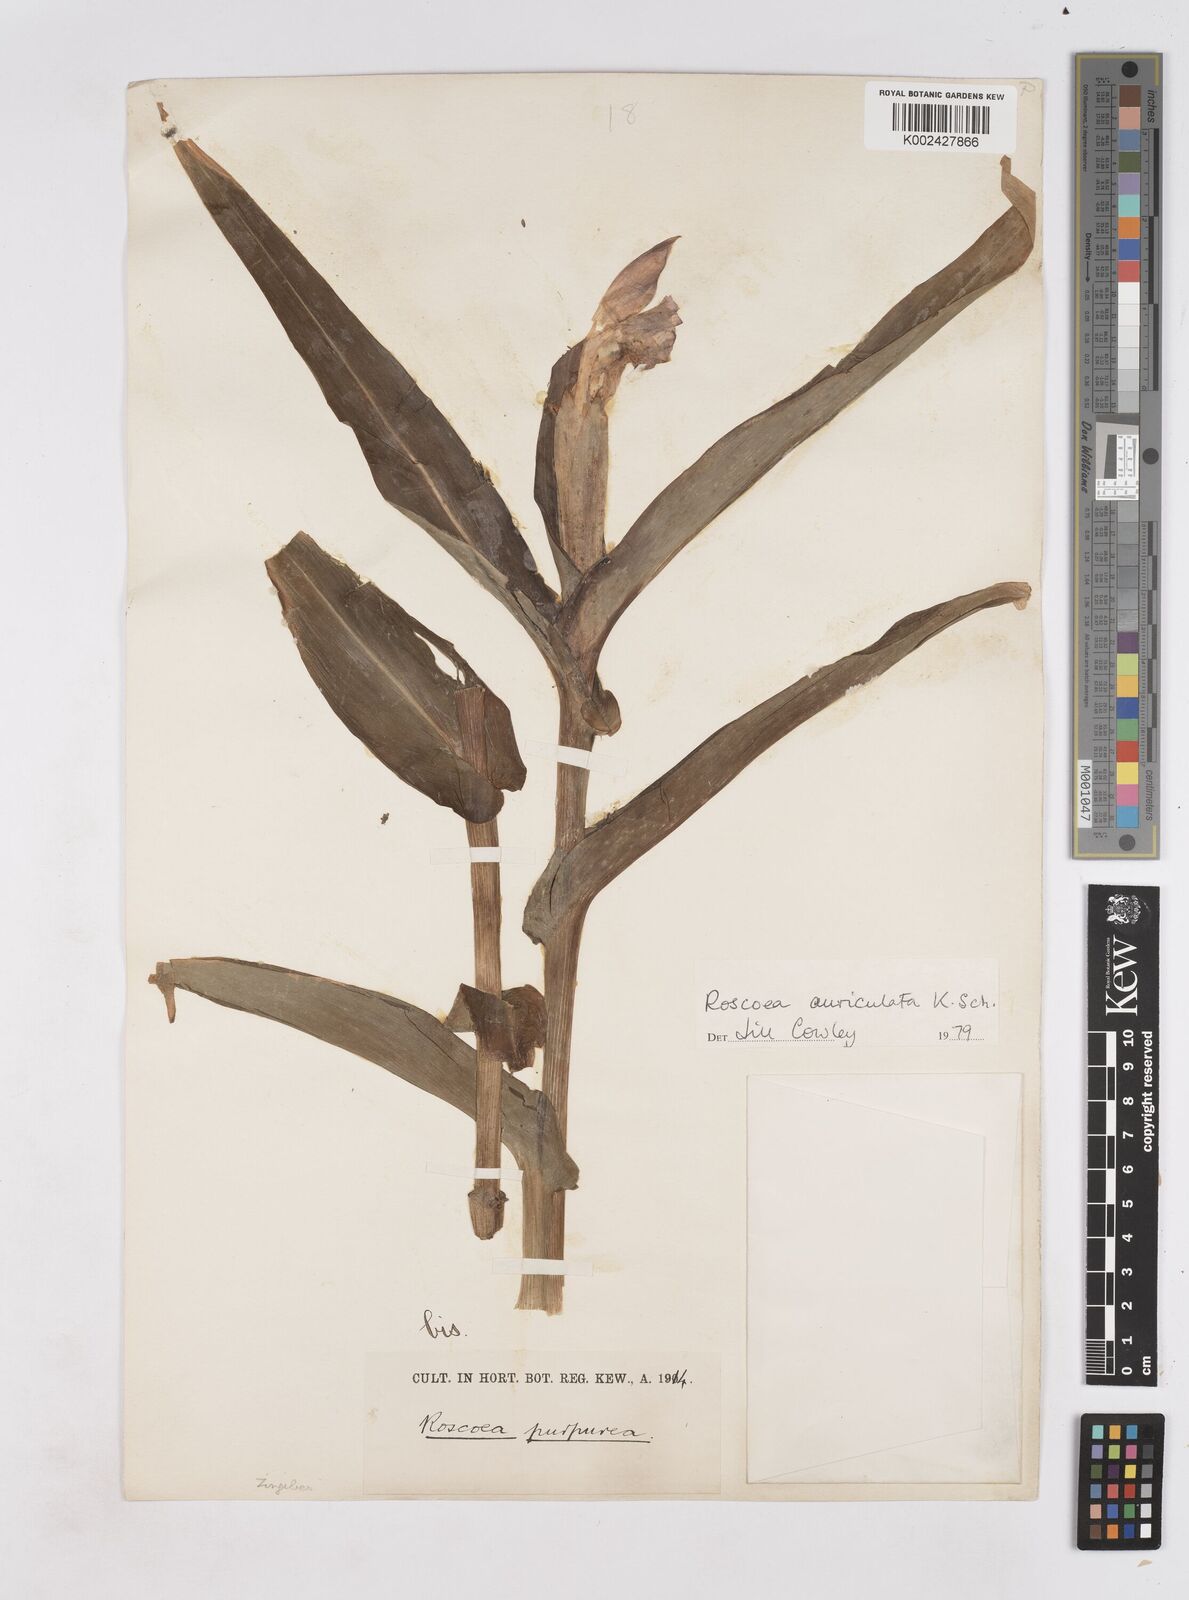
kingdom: Plantae
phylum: Tracheophyta
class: Liliopsida
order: Zingiberales
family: Zingiberaceae
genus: Roscoea
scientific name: Roscoea auriculata
